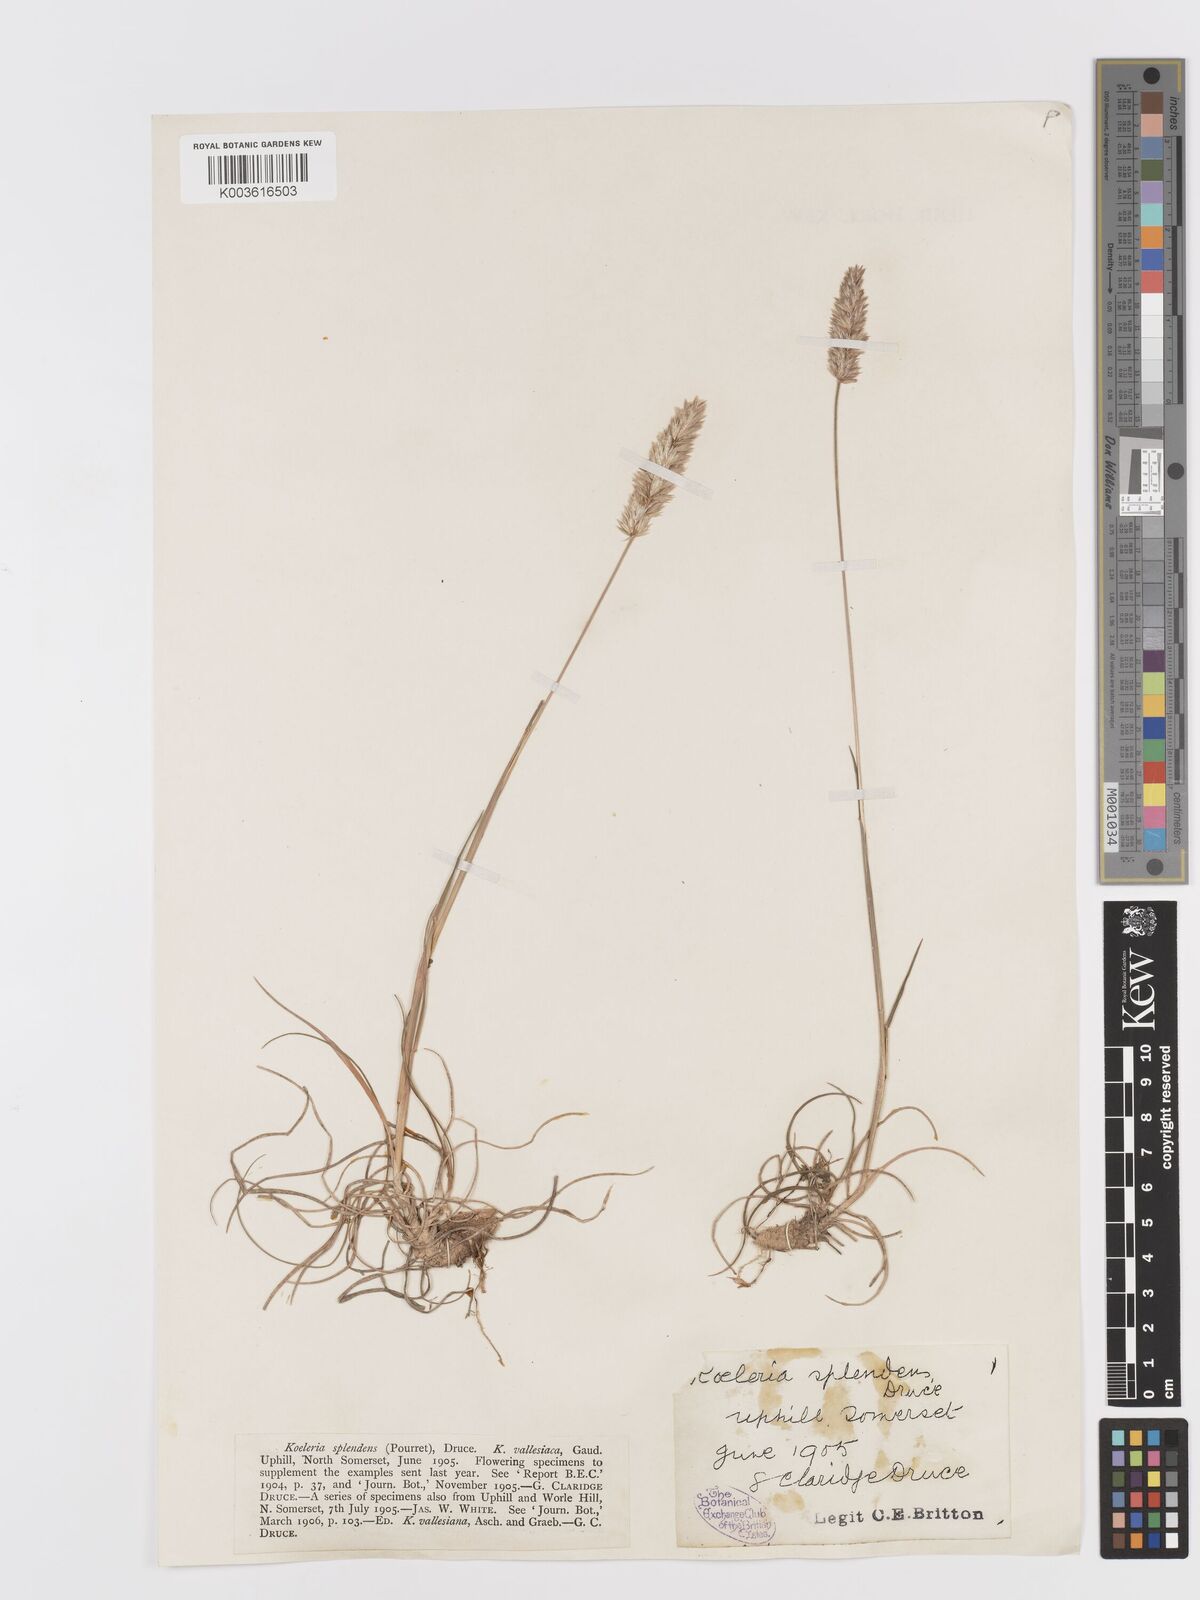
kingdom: Plantae
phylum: Tracheophyta
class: Liliopsida
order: Poales
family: Poaceae
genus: Koeleria
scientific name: Koeleria vallesiana
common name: Somerset hair-grass
